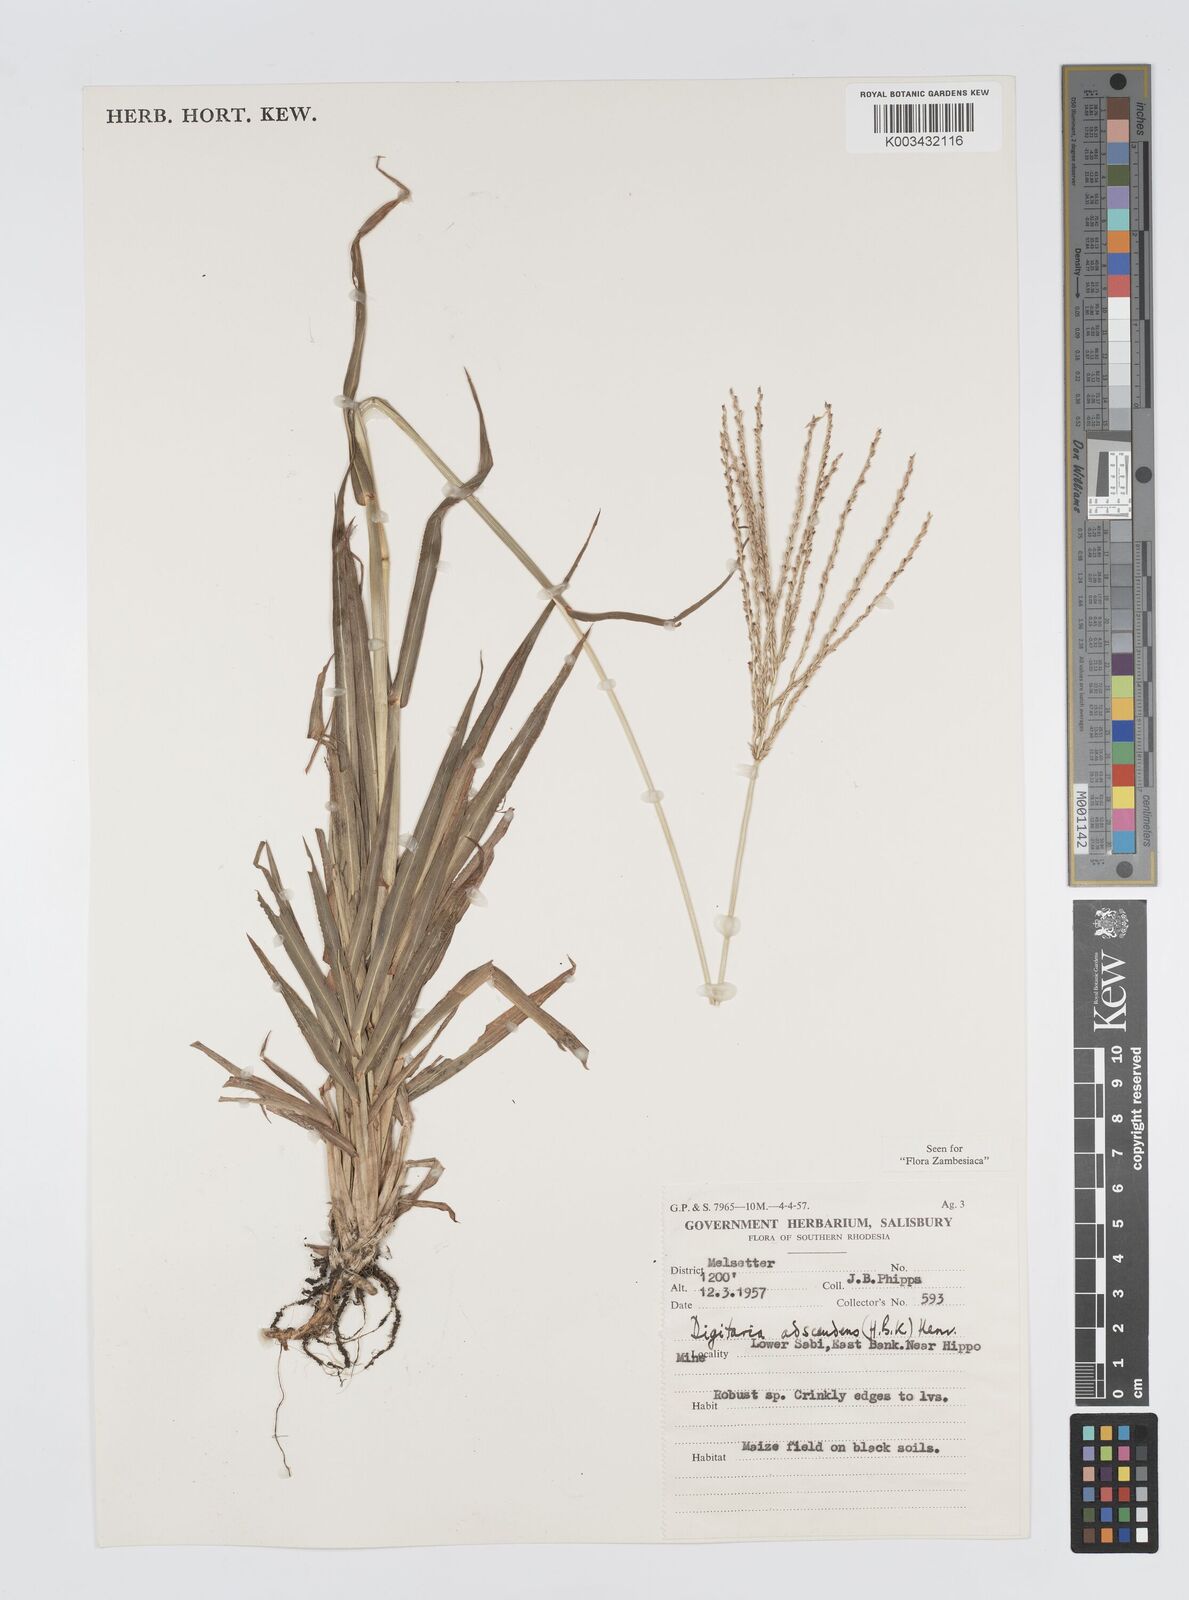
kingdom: Plantae
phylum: Tracheophyta
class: Liliopsida
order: Poales
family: Poaceae
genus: Digitaria
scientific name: Digitaria milanjiana
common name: Madagascar crabgrass
